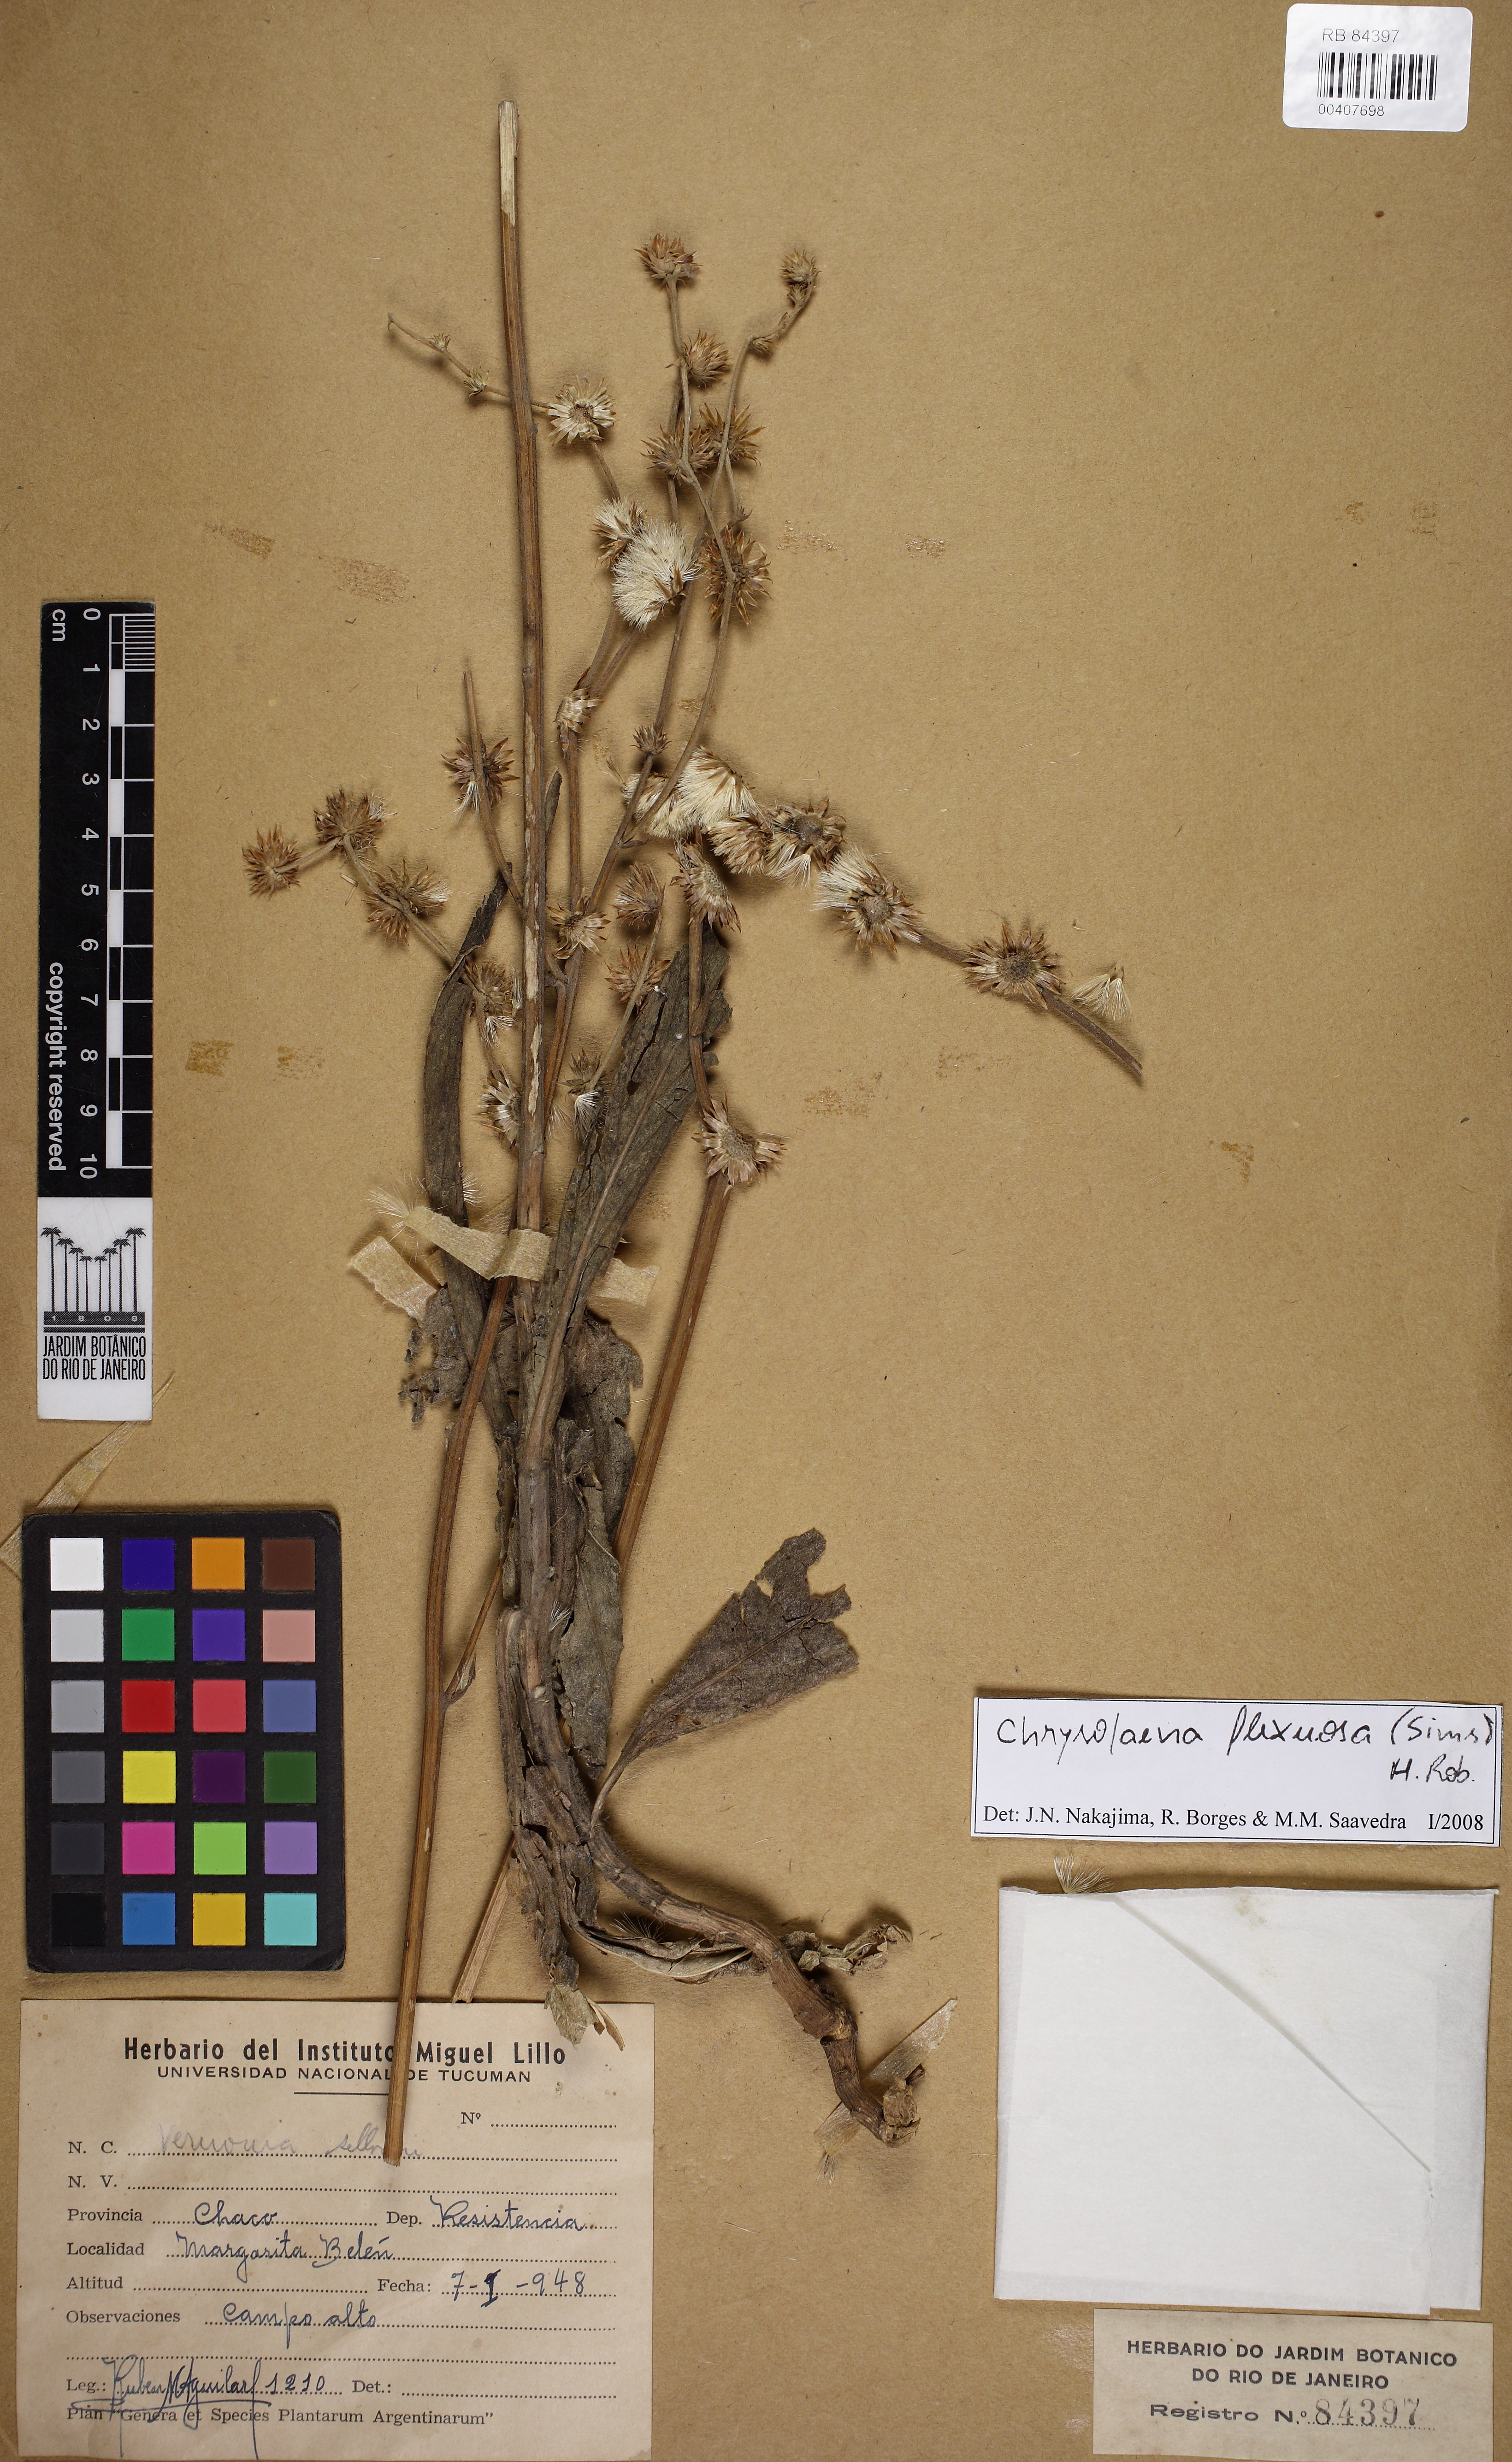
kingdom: Plantae
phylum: Tracheophyta
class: Magnoliopsida
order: Asterales
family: Asteraceae
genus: Chrysolaena
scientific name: Chrysolaena flexuosa
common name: Zig-zag vernonia
